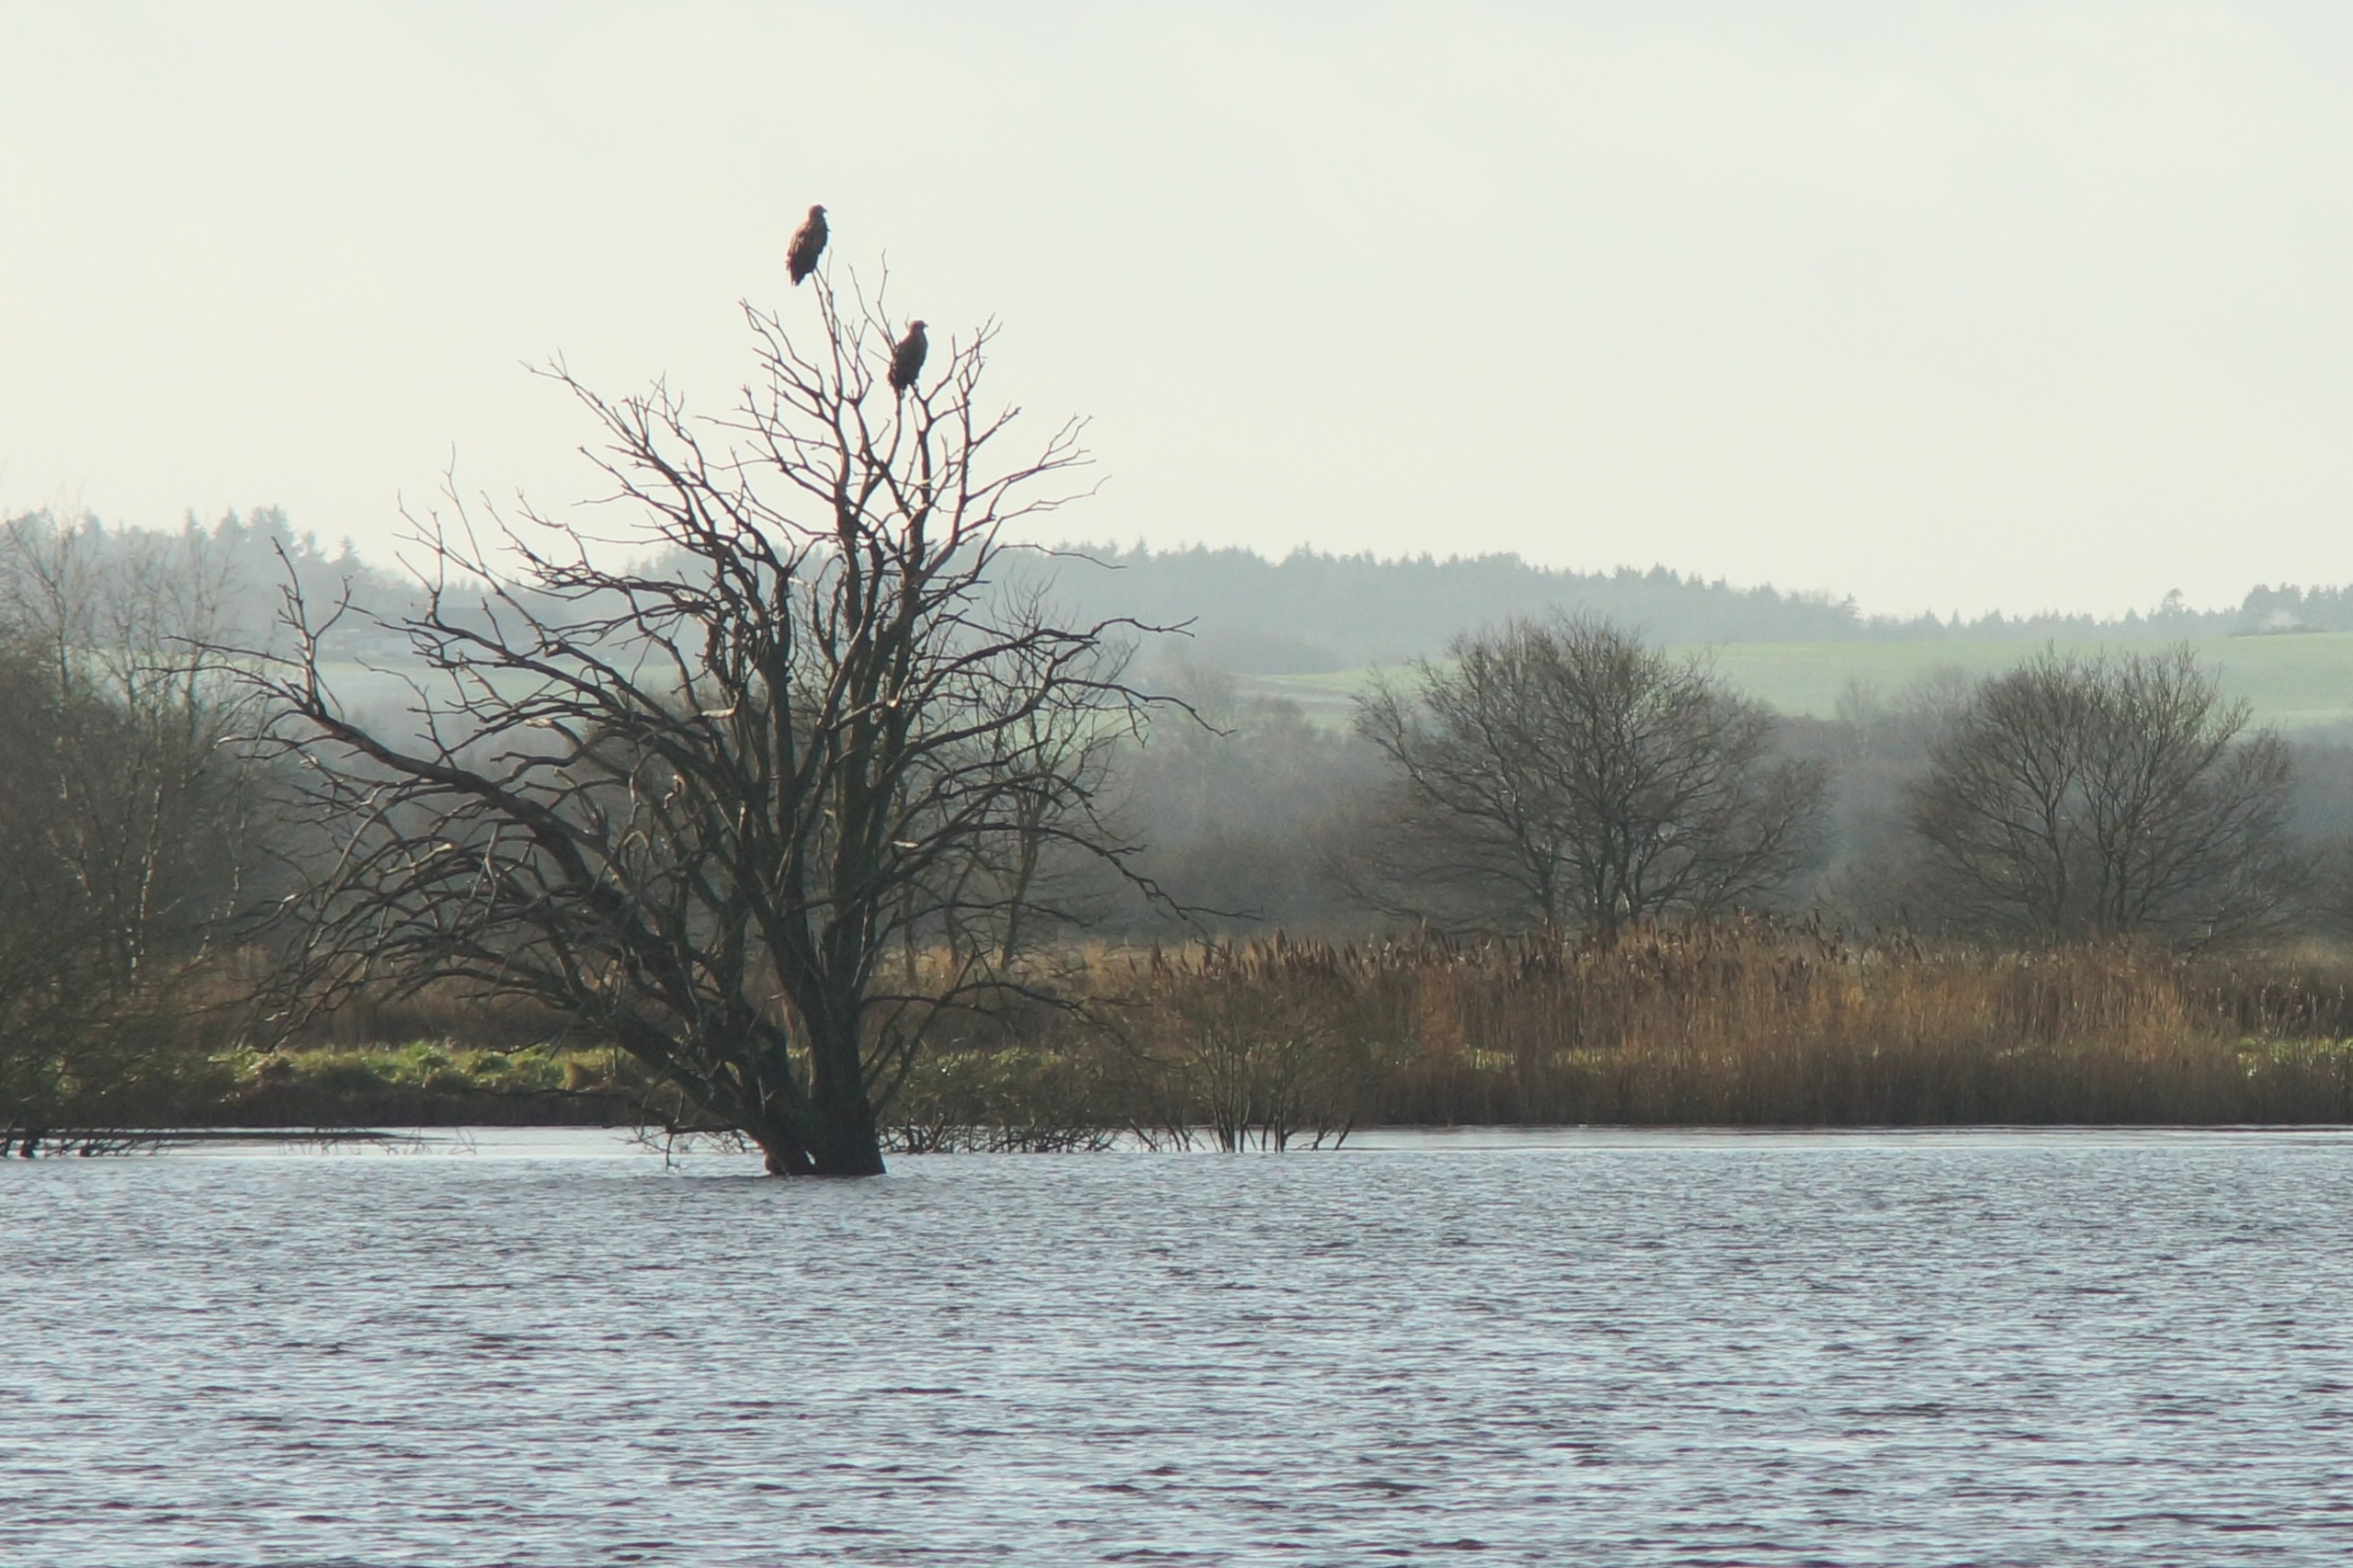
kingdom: Animalia
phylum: Chordata
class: Aves
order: Accipitriformes
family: Accipitridae
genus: Haliaeetus
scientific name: Haliaeetus albicilla
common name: Havørn
